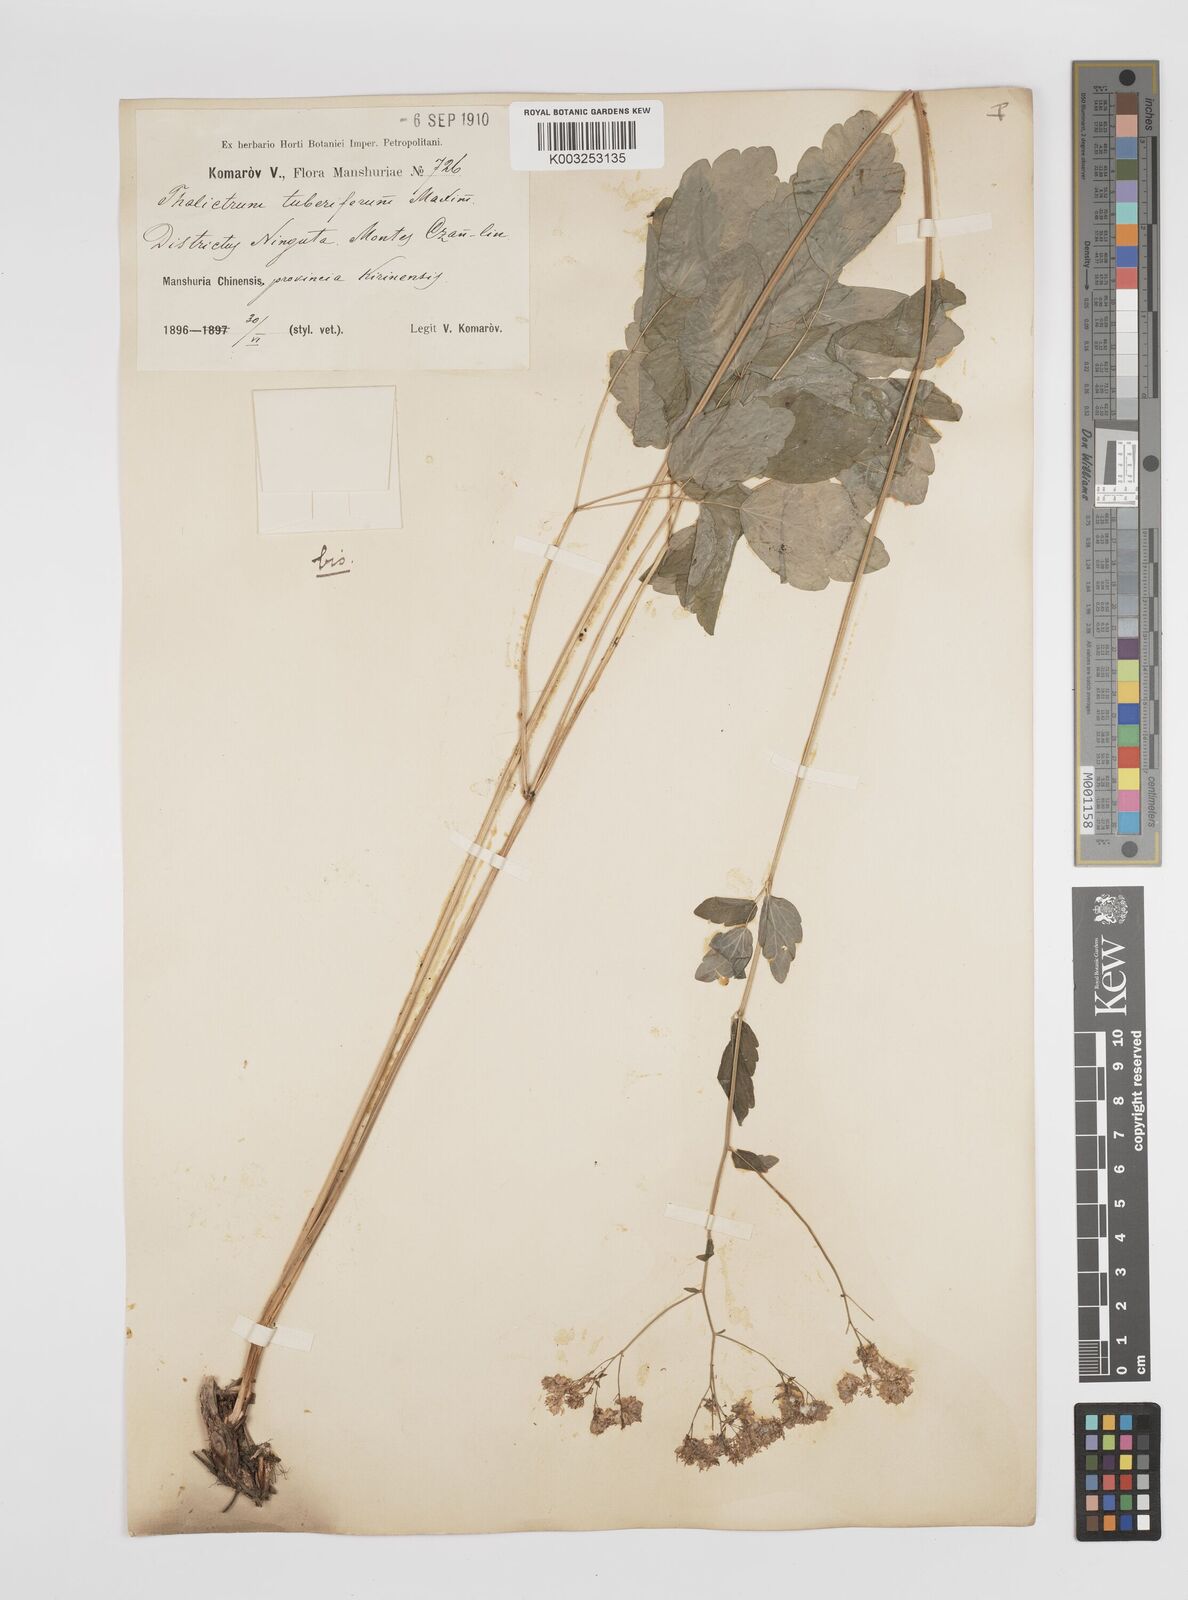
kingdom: Plantae
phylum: Tracheophyta
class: Magnoliopsida
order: Ranunculales
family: Ranunculaceae
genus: Thalictrum
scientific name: Thalictrum tuberiferum
